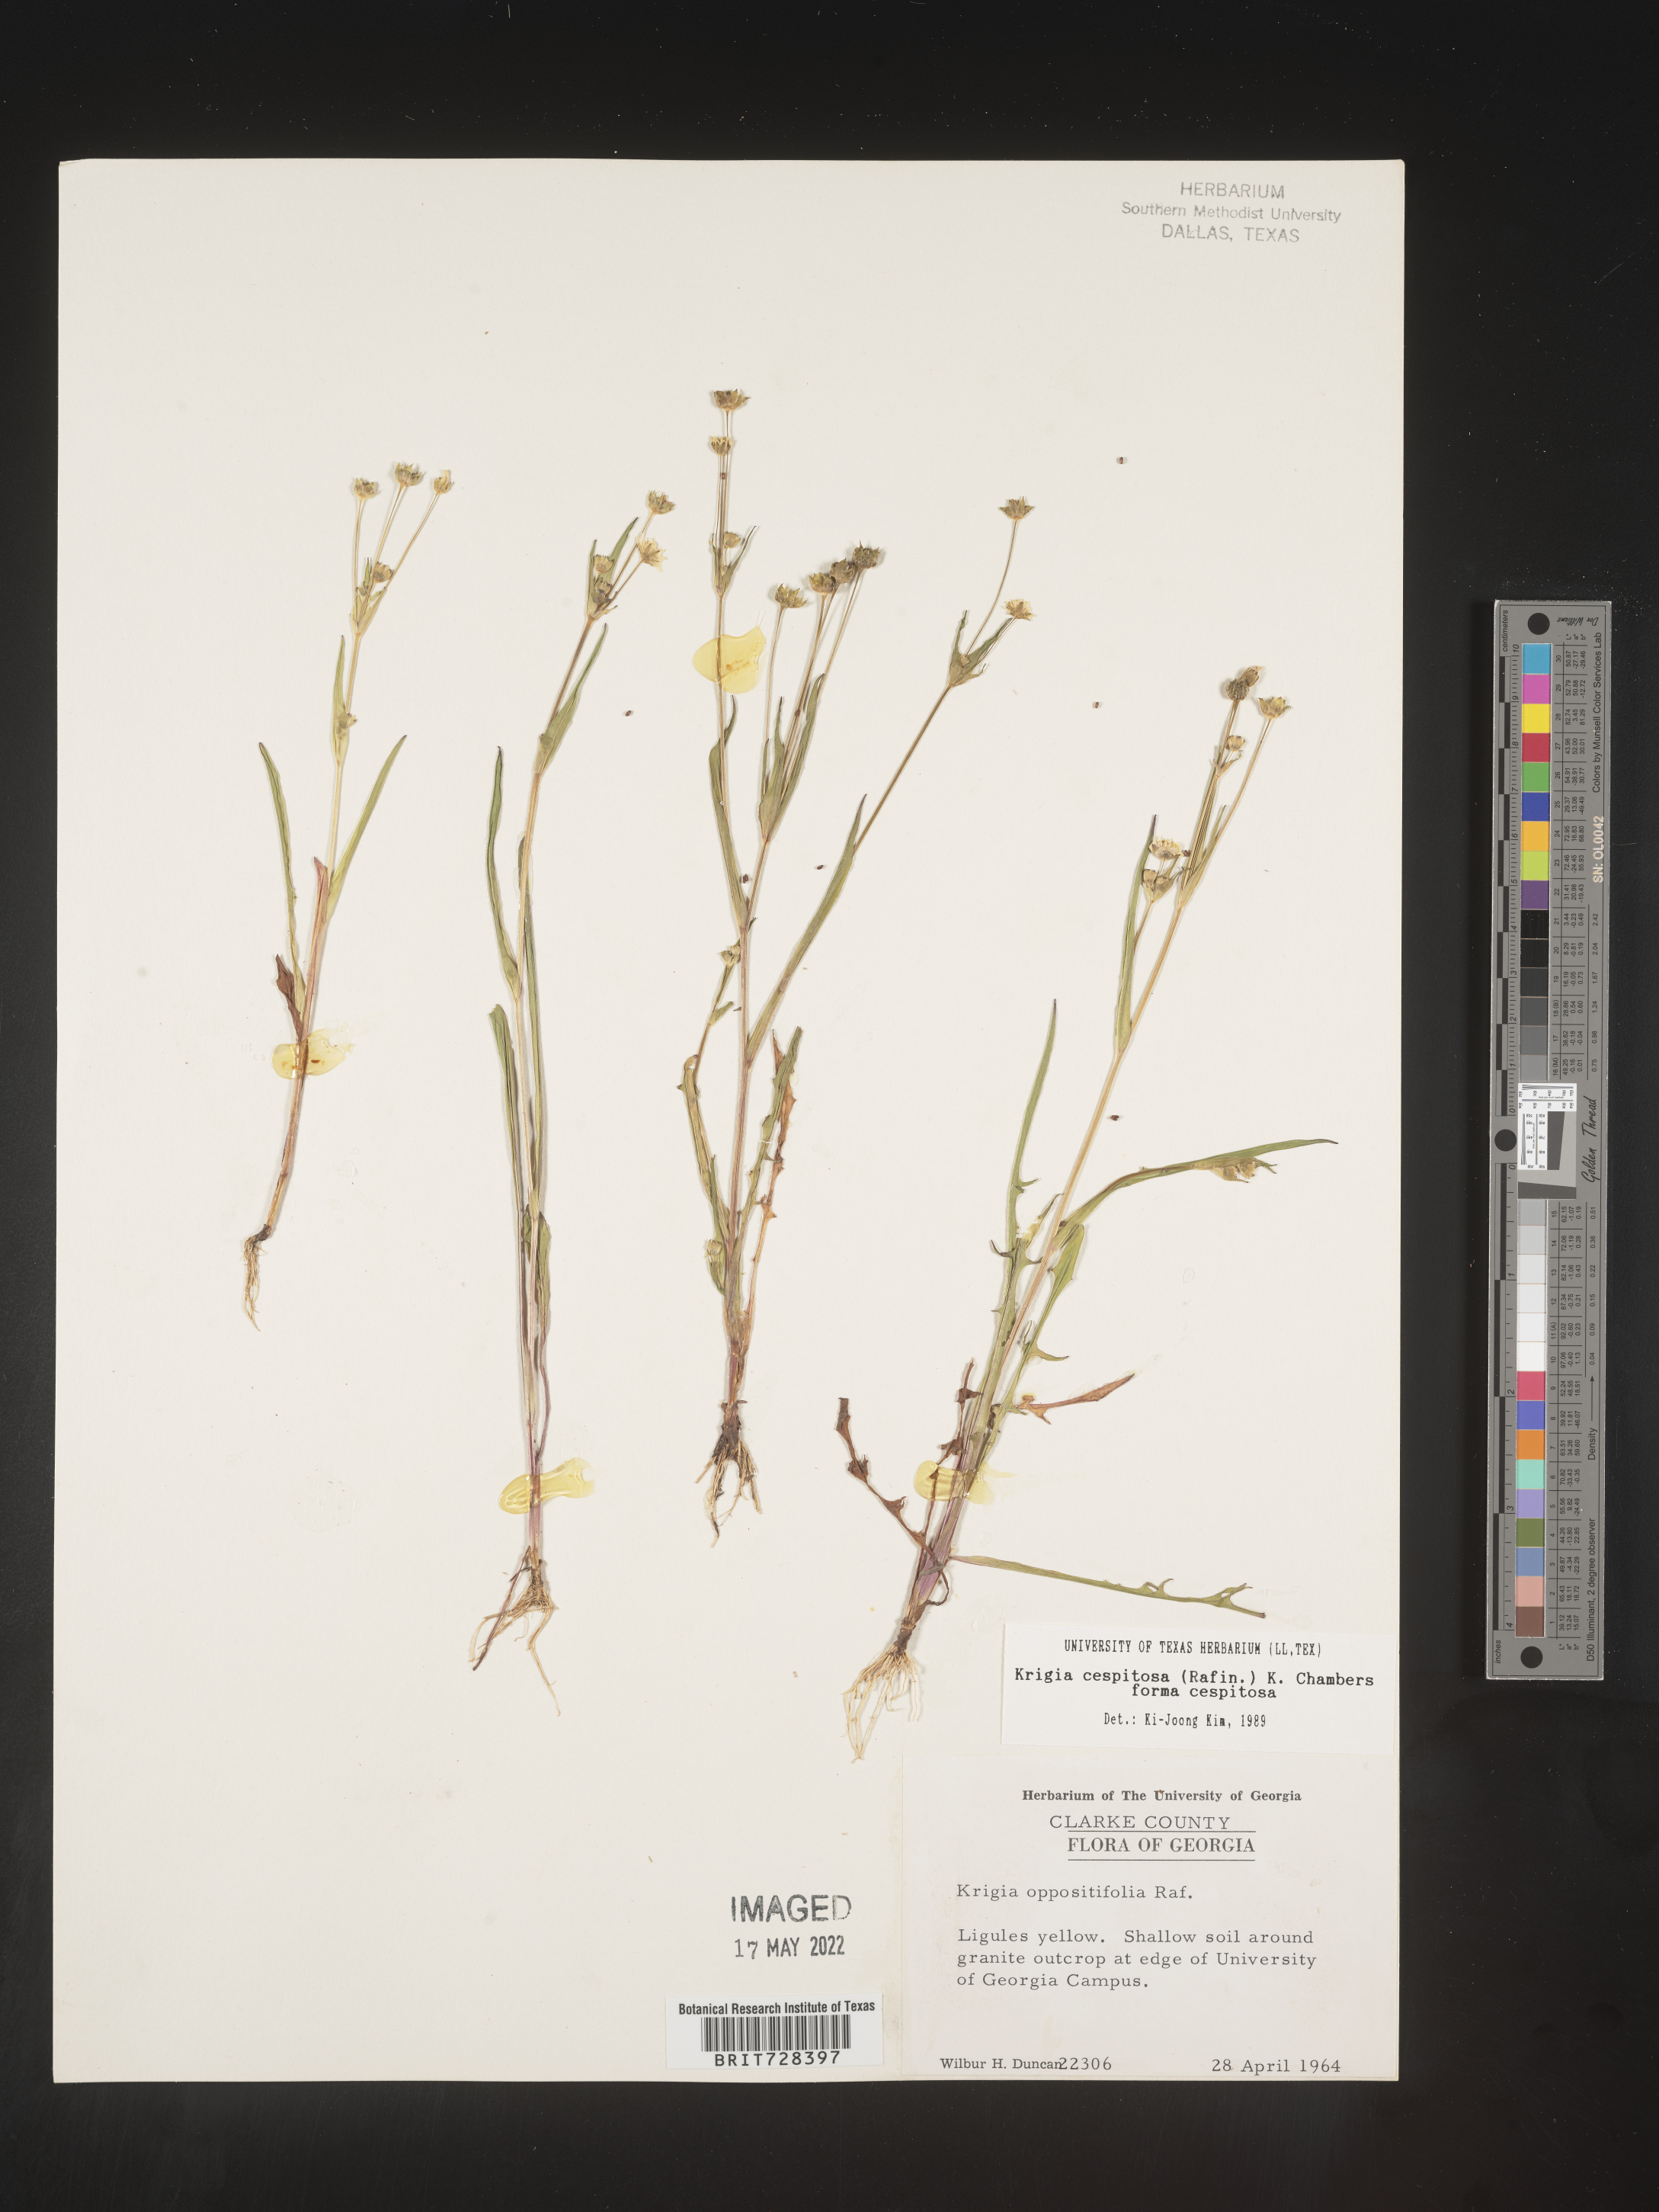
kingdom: Plantae
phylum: Tracheophyta
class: Magnoliopsida
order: Asterales
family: Asteraceae
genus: Krigia
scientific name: Krigia caespitosa
